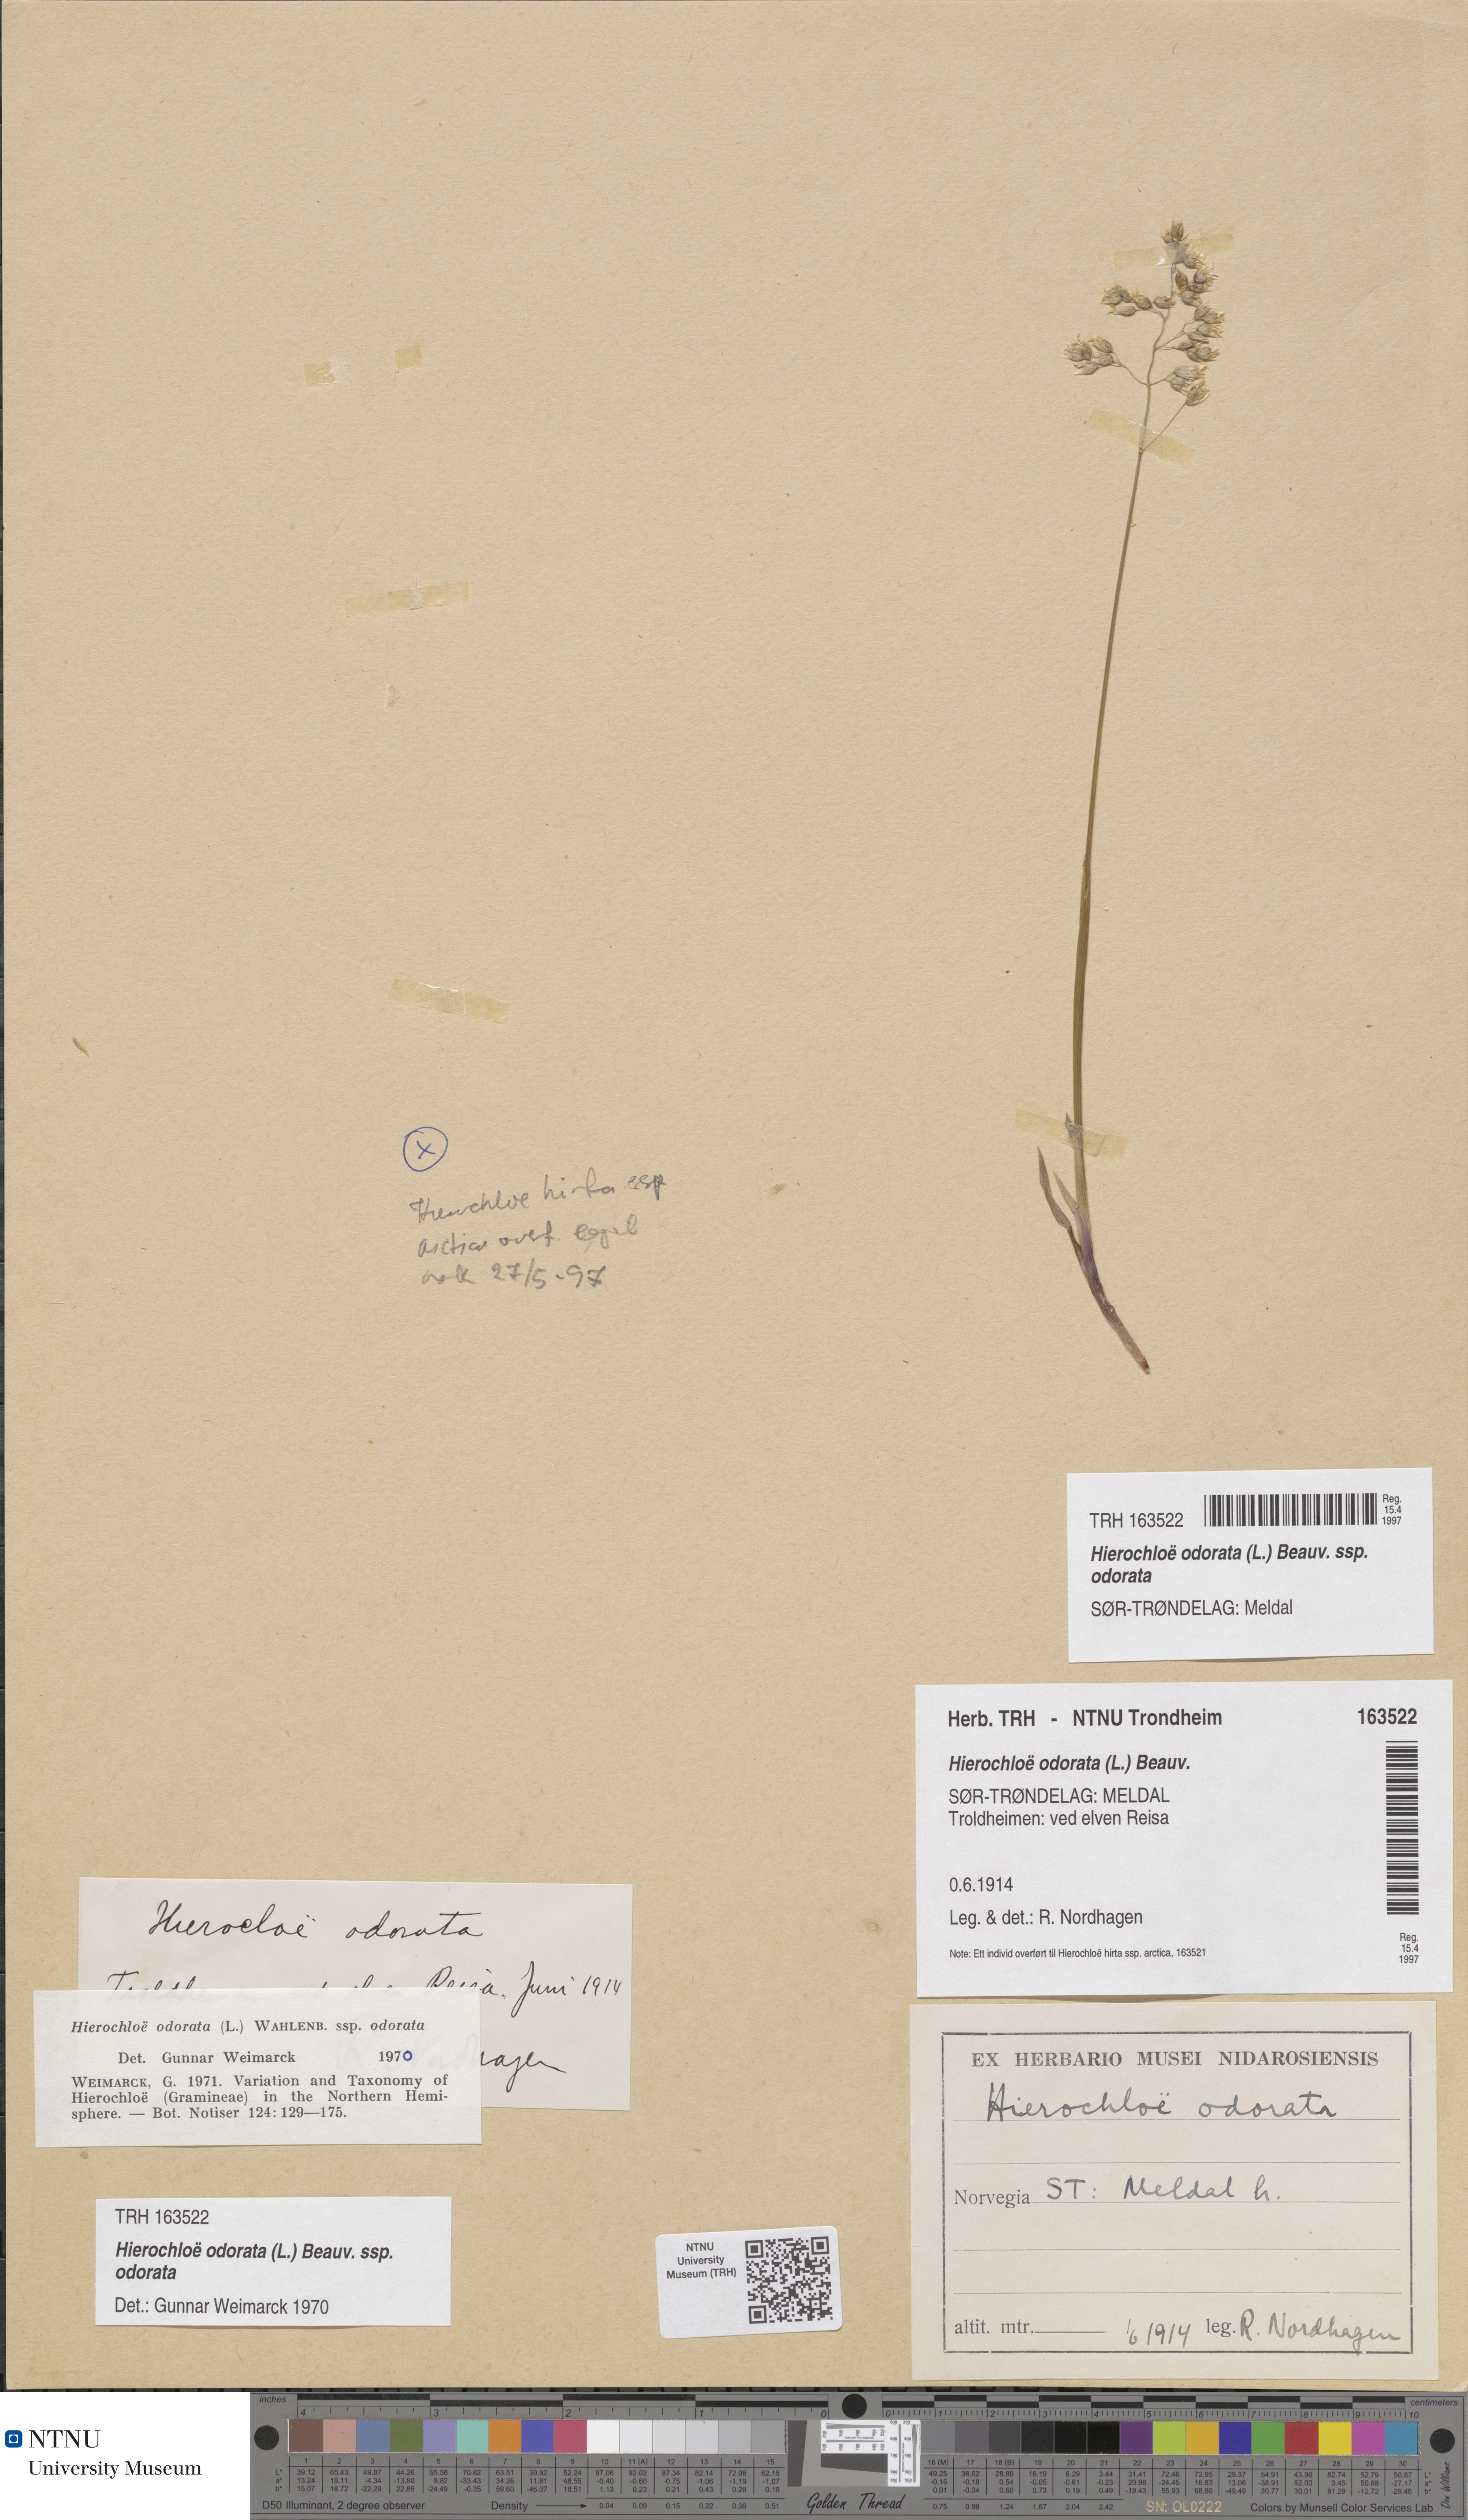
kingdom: Plantae
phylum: Tracheophyta
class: Liliopsida
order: Poales
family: Poaceae
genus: Anthoxanthum
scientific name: Anthoxanthum nitens
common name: Holy grass
